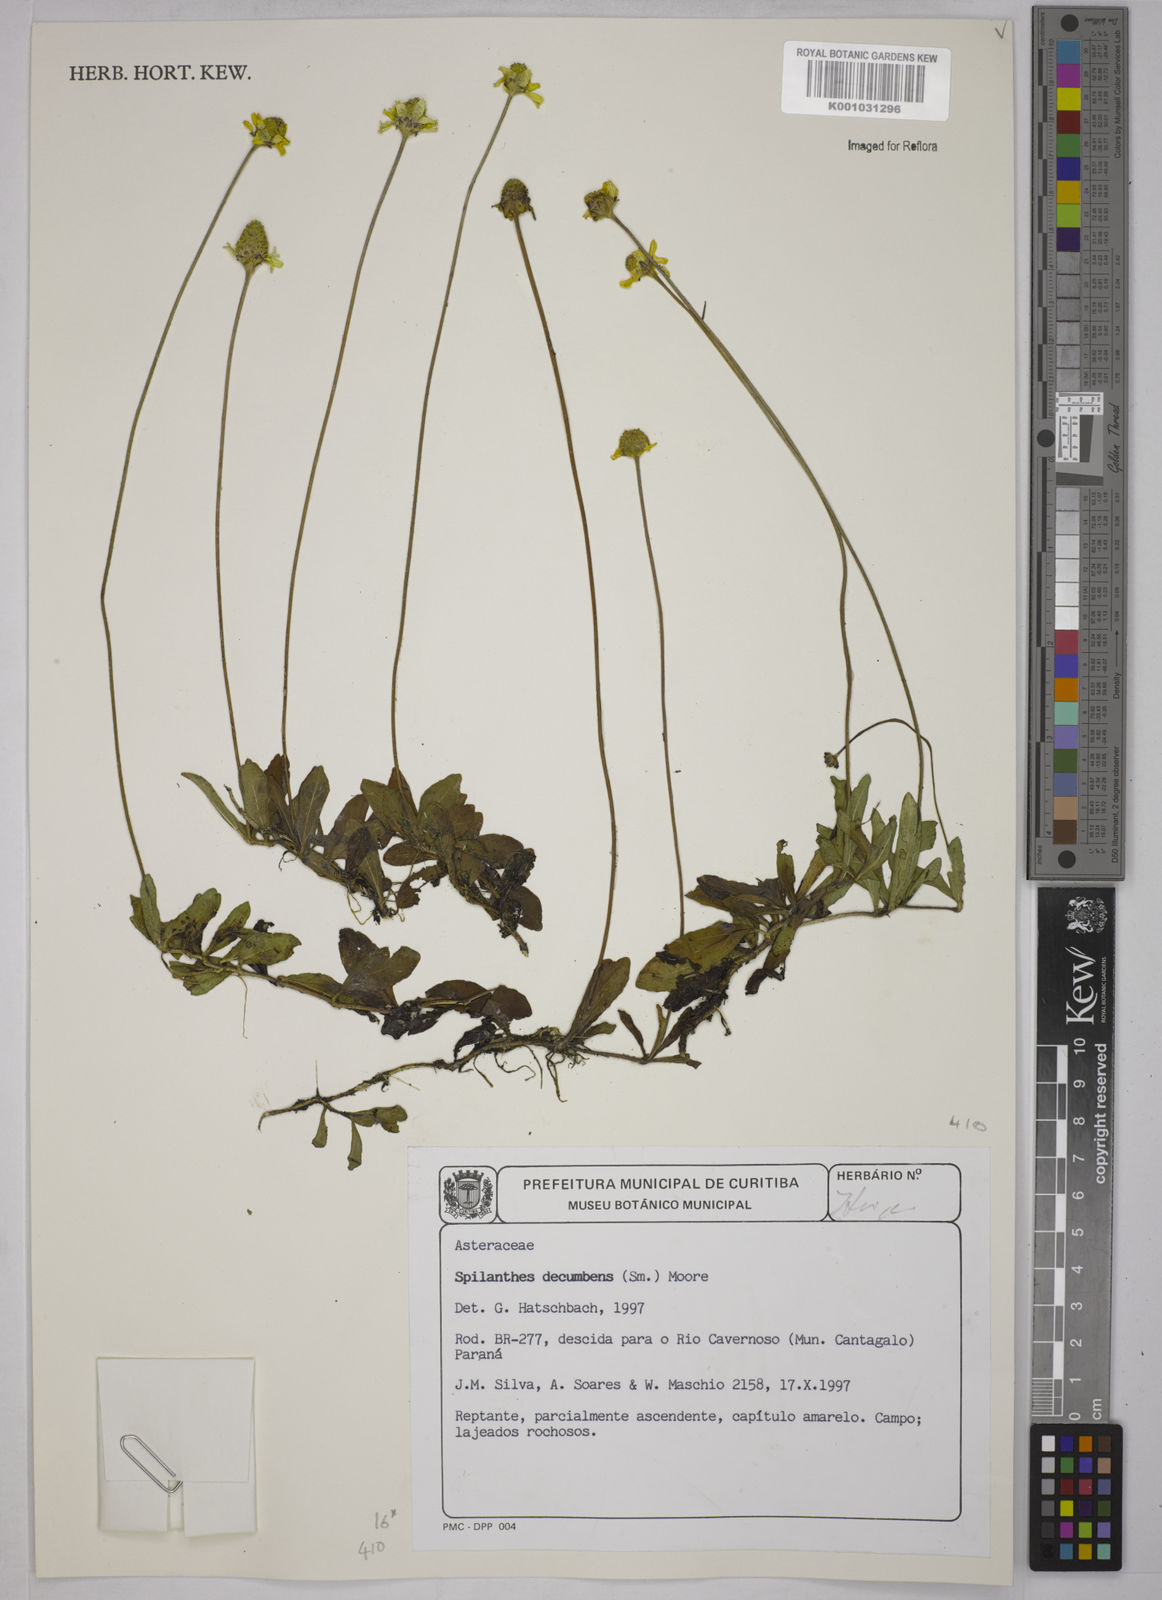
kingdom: Plantae
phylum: Tracheophyta
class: Magnoliopsida
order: Asterales
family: Asteraceae
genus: Acmella
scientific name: Acmella decumbens
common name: Creeping spotflower
